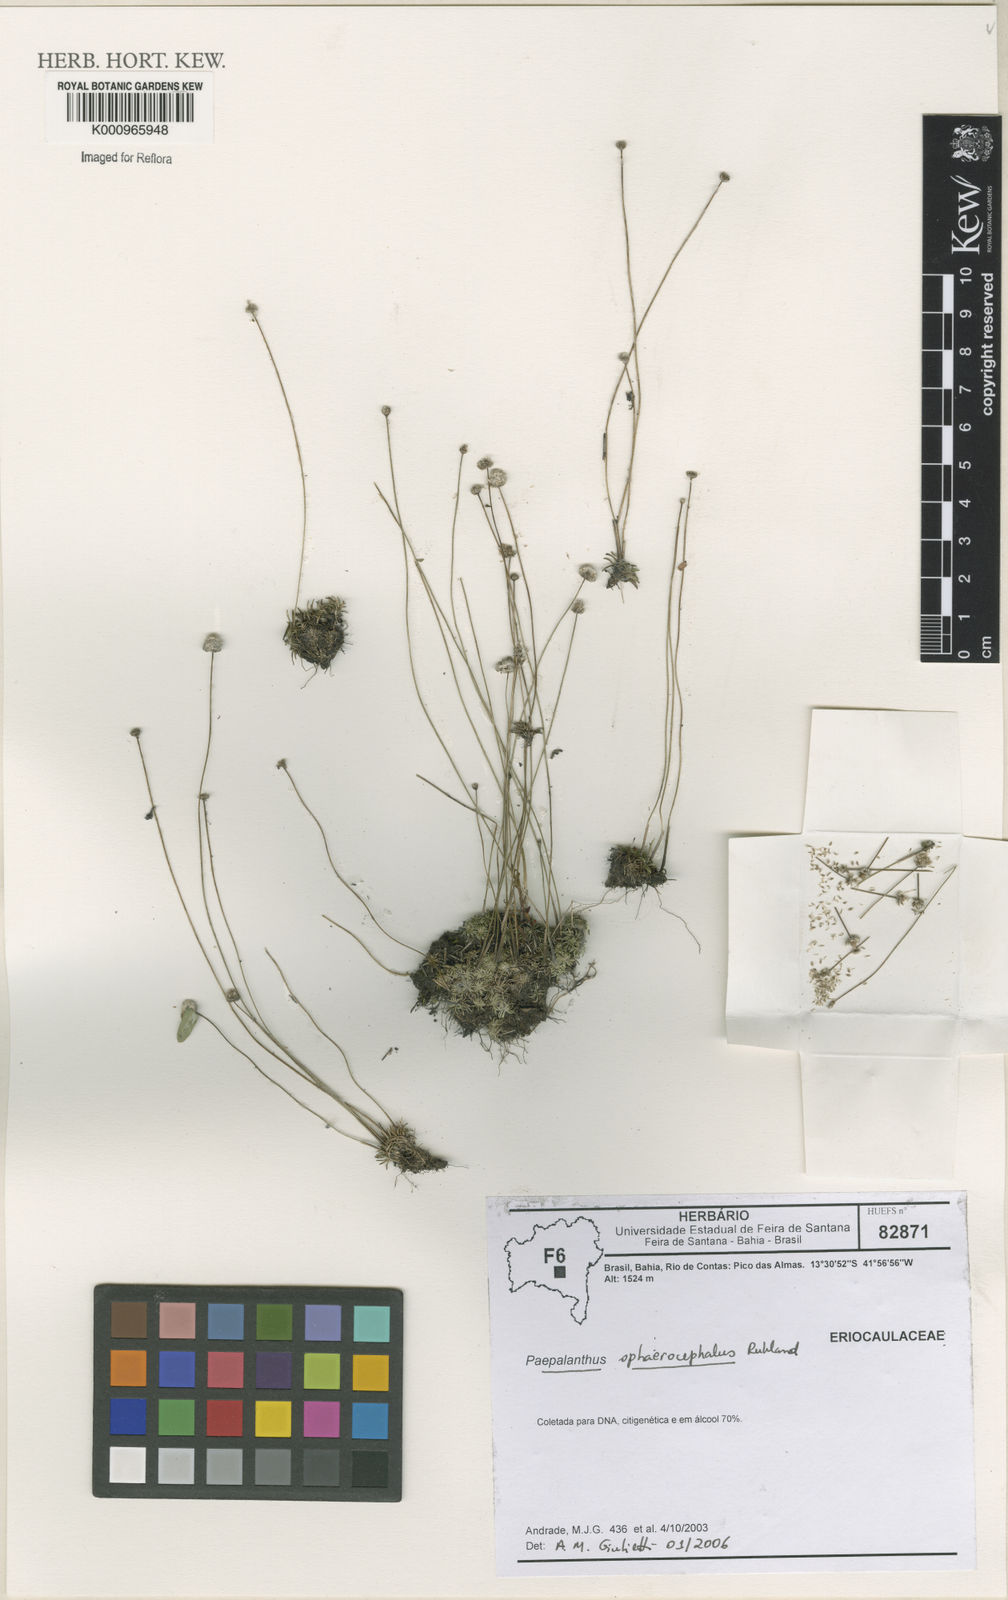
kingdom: Plantae
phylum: Tracheophyta
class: Liliopsida
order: Poales
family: Eriocaulaceae
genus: Paepalanthus
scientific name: Paepalanthus sphaerocephalus
